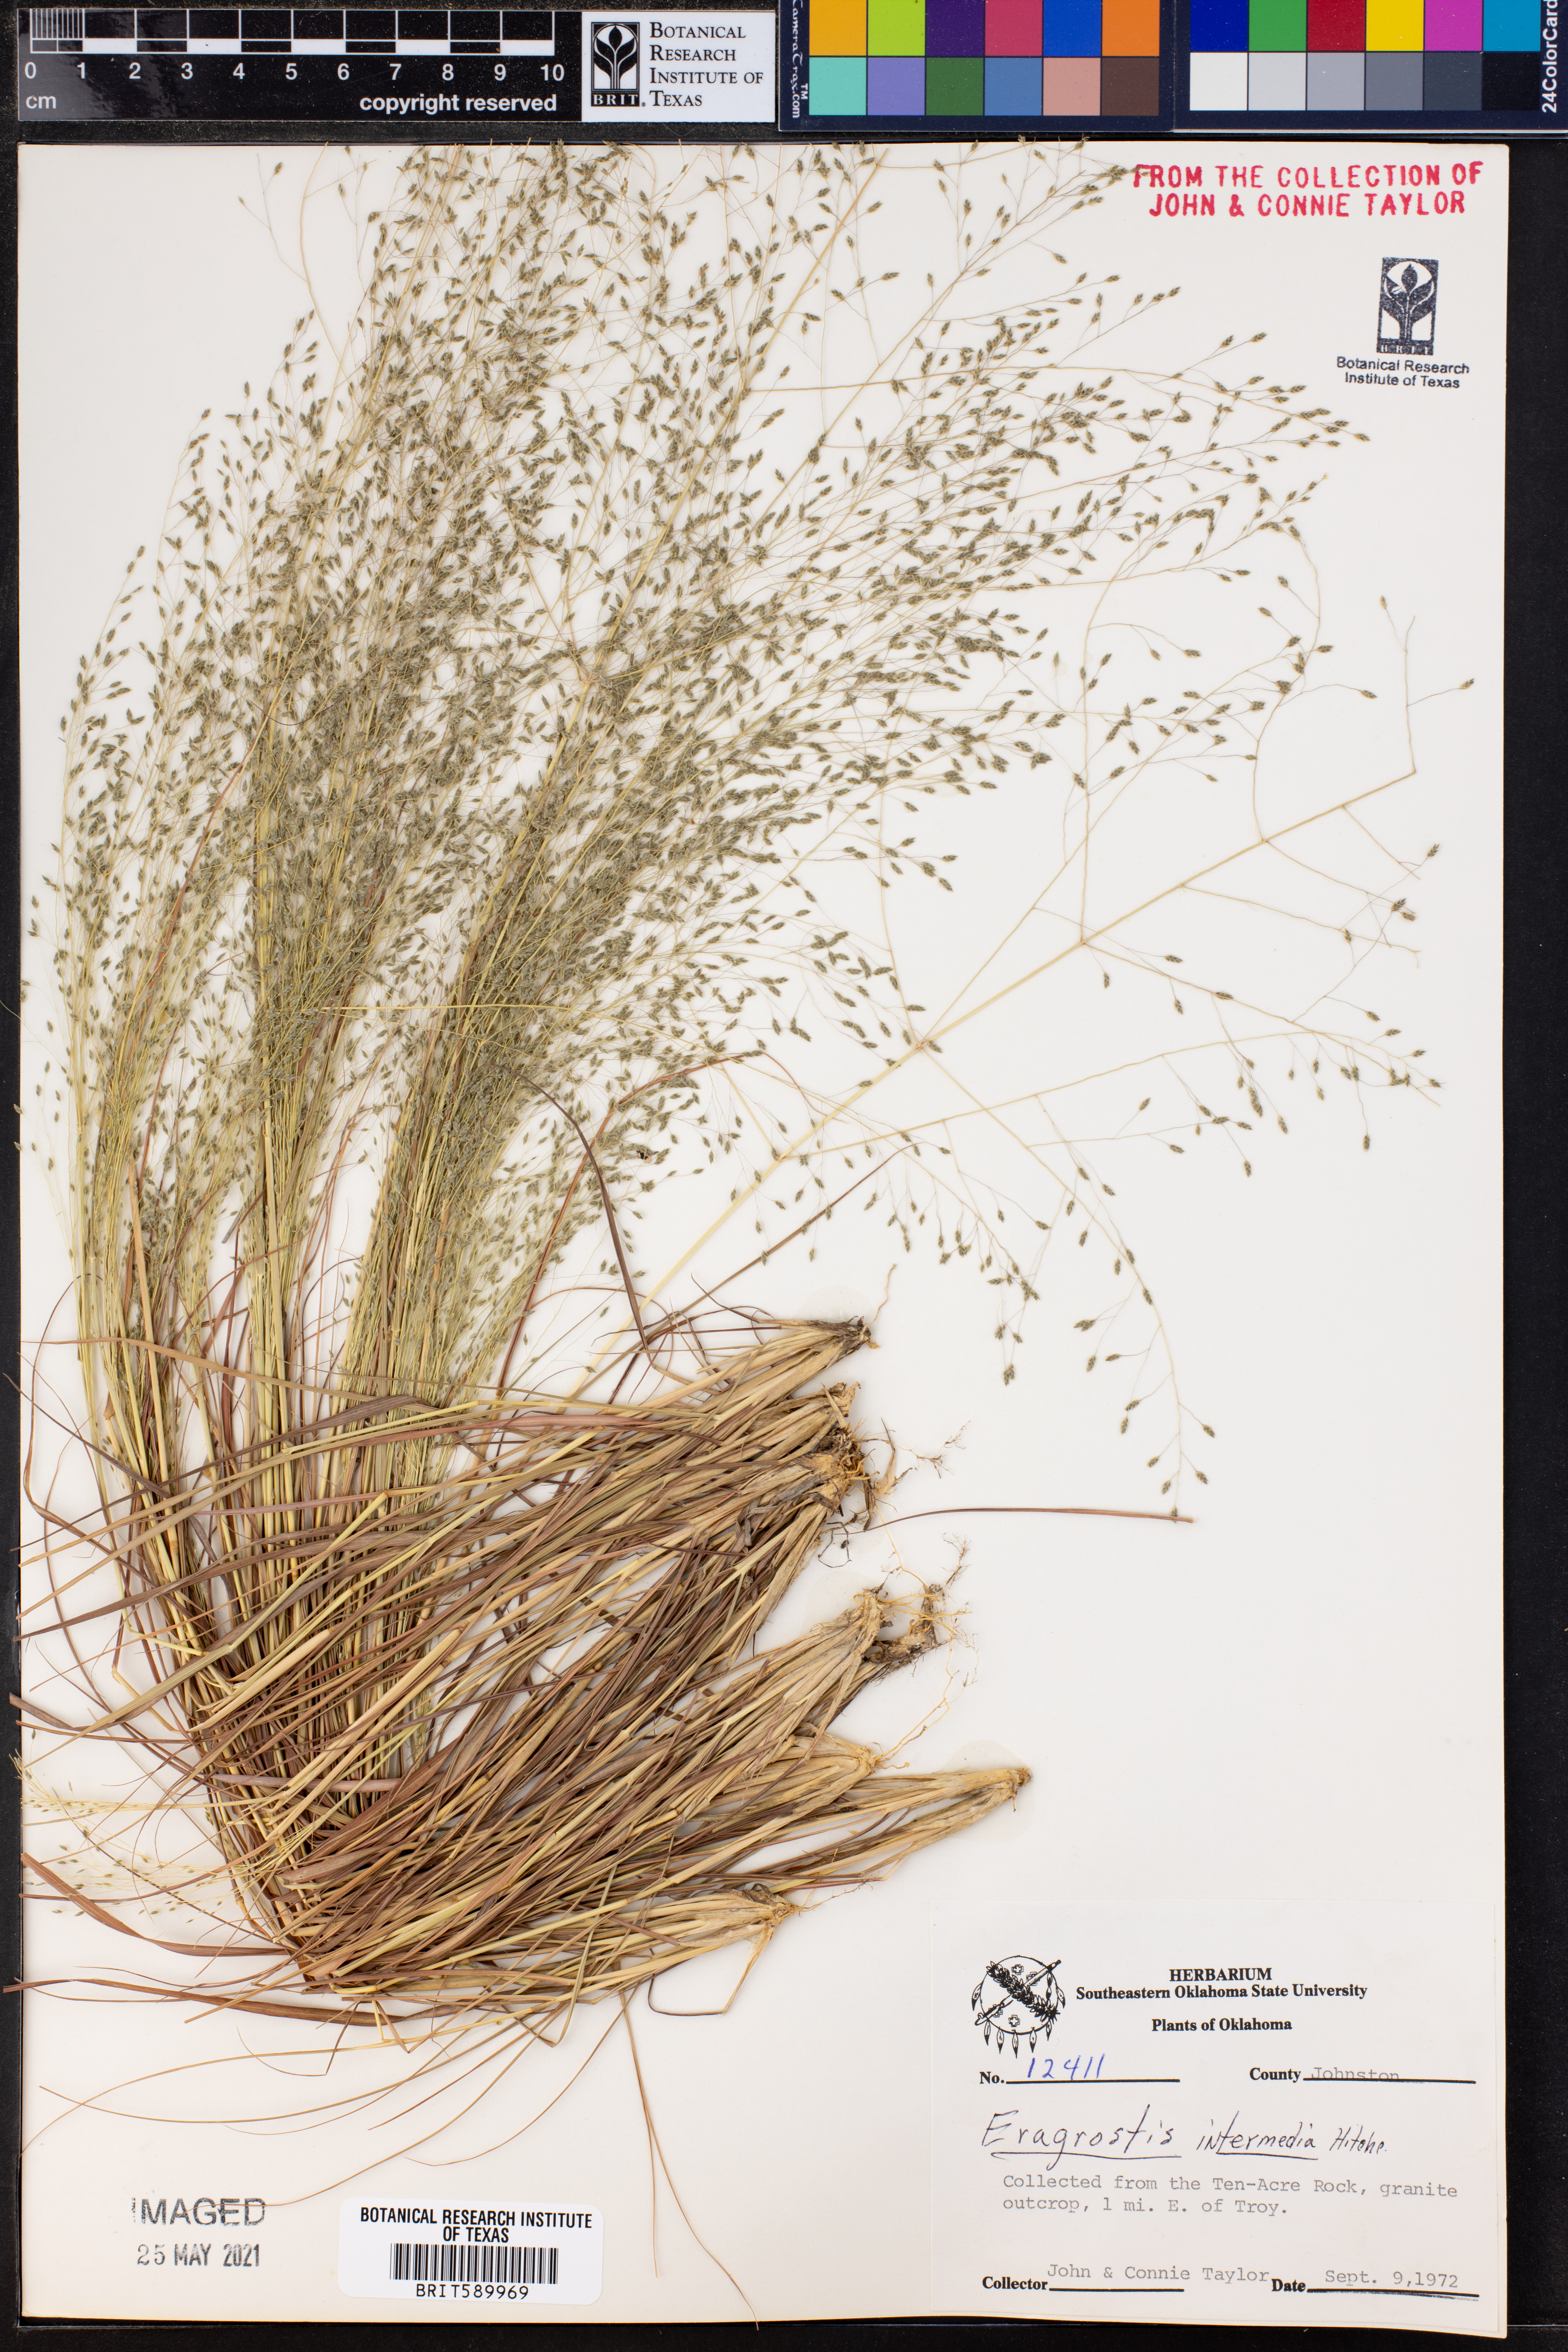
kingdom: Plantae
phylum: Tracheophyta
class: Liliopsida
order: Poales
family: Poaceae
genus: Eragrostis
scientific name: Eragrostis intermedia
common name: Plains love grass
